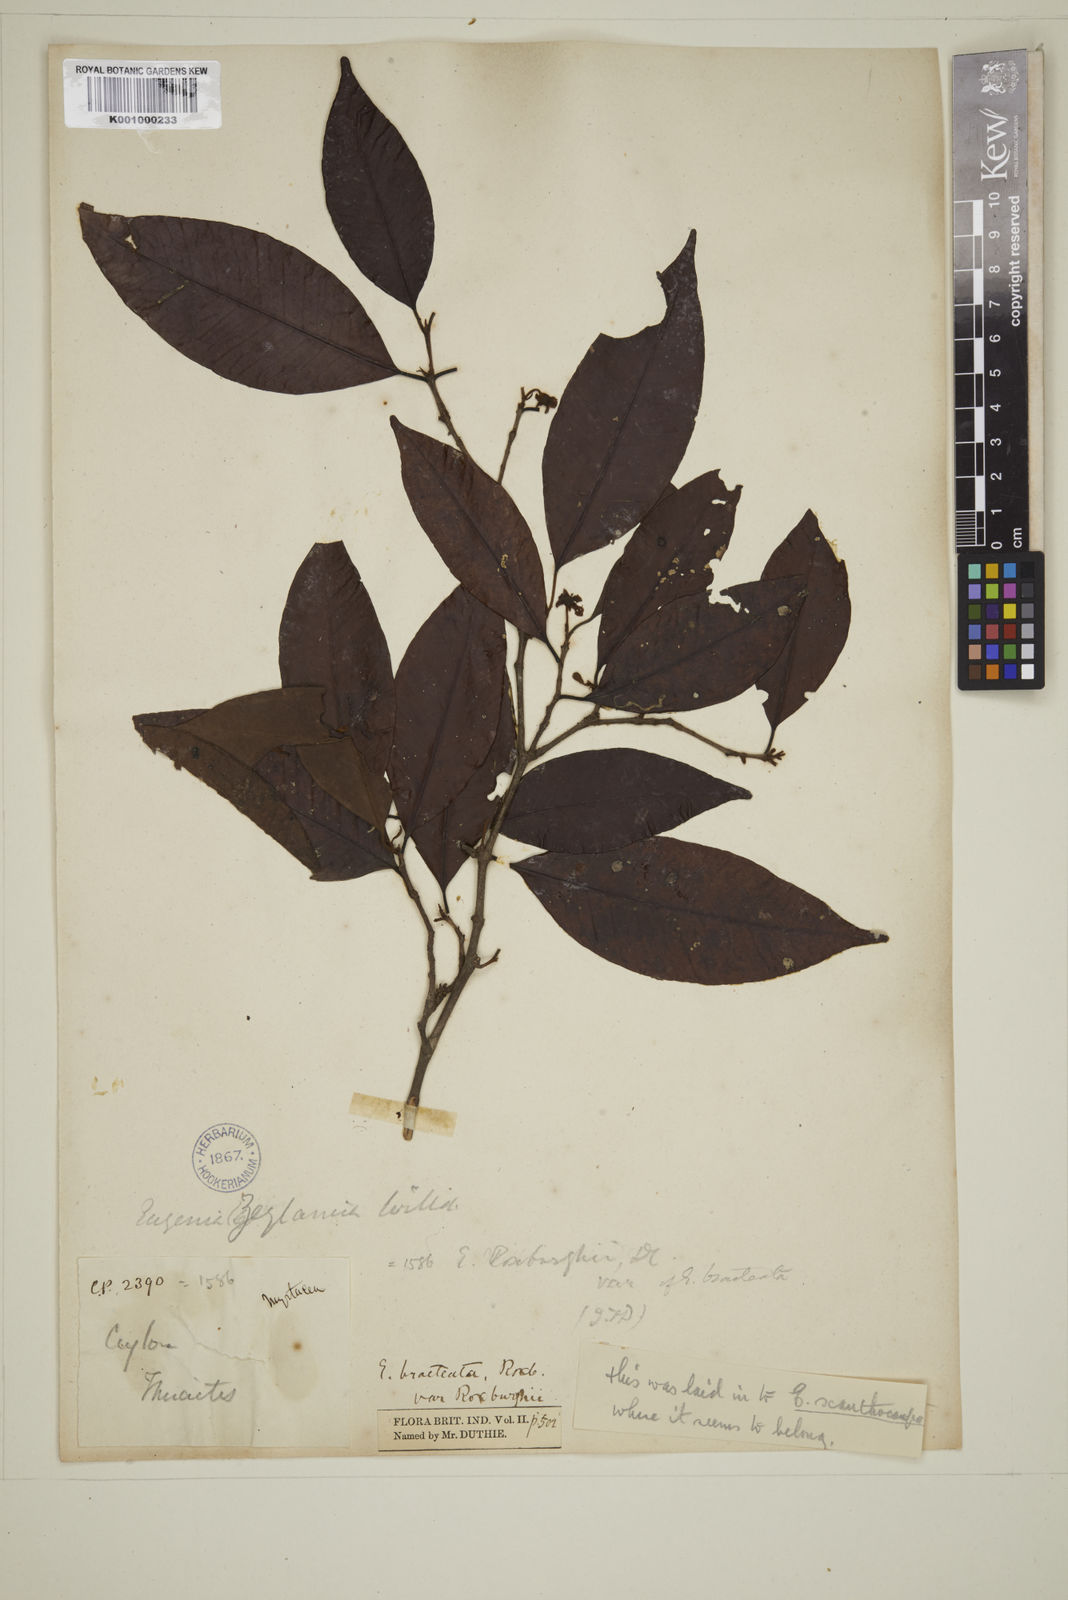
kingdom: Plantae
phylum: Tracheophyta
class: Magnoliopsida
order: Myrtales
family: Myrtaceae
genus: Campomanesia
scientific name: Campomanesia xanthocarpa
